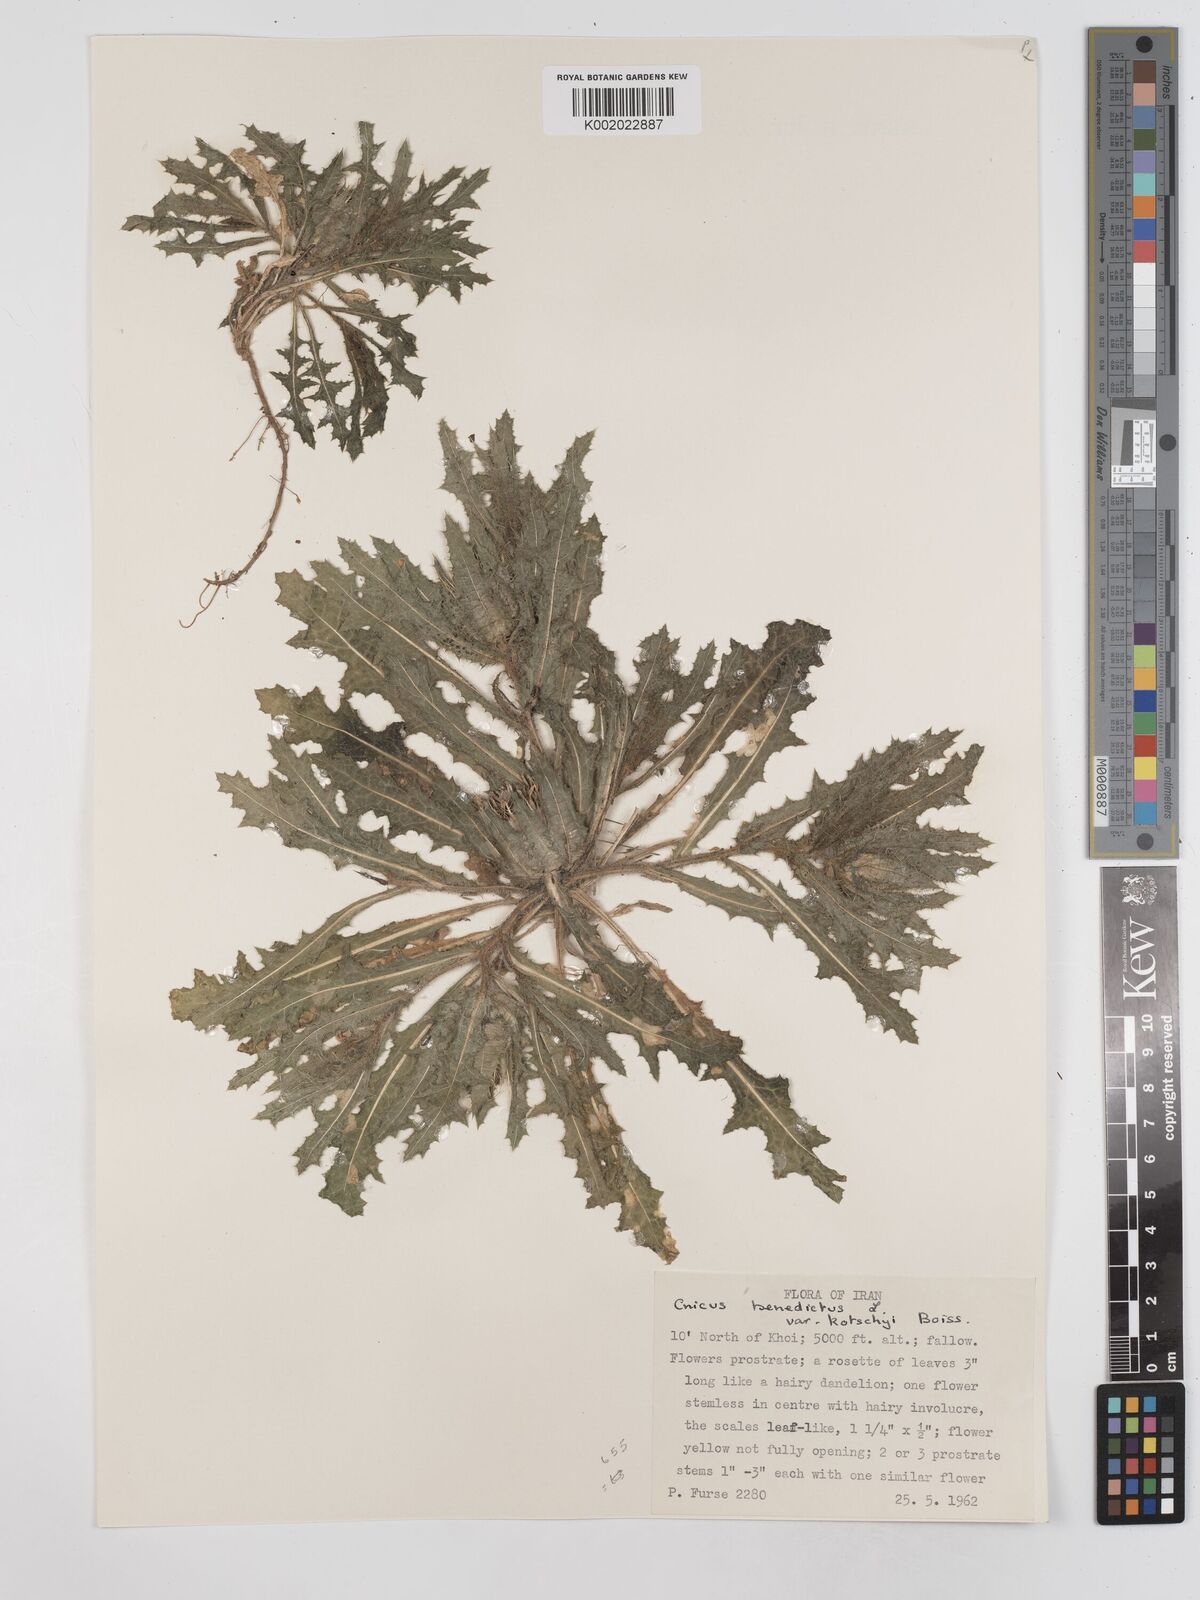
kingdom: Plantae
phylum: Tracheophyta
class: Magnoliopsida
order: Asterales
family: Asteraceae
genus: Centaurea
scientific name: Centaurea benedicta
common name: Blessed thistle
